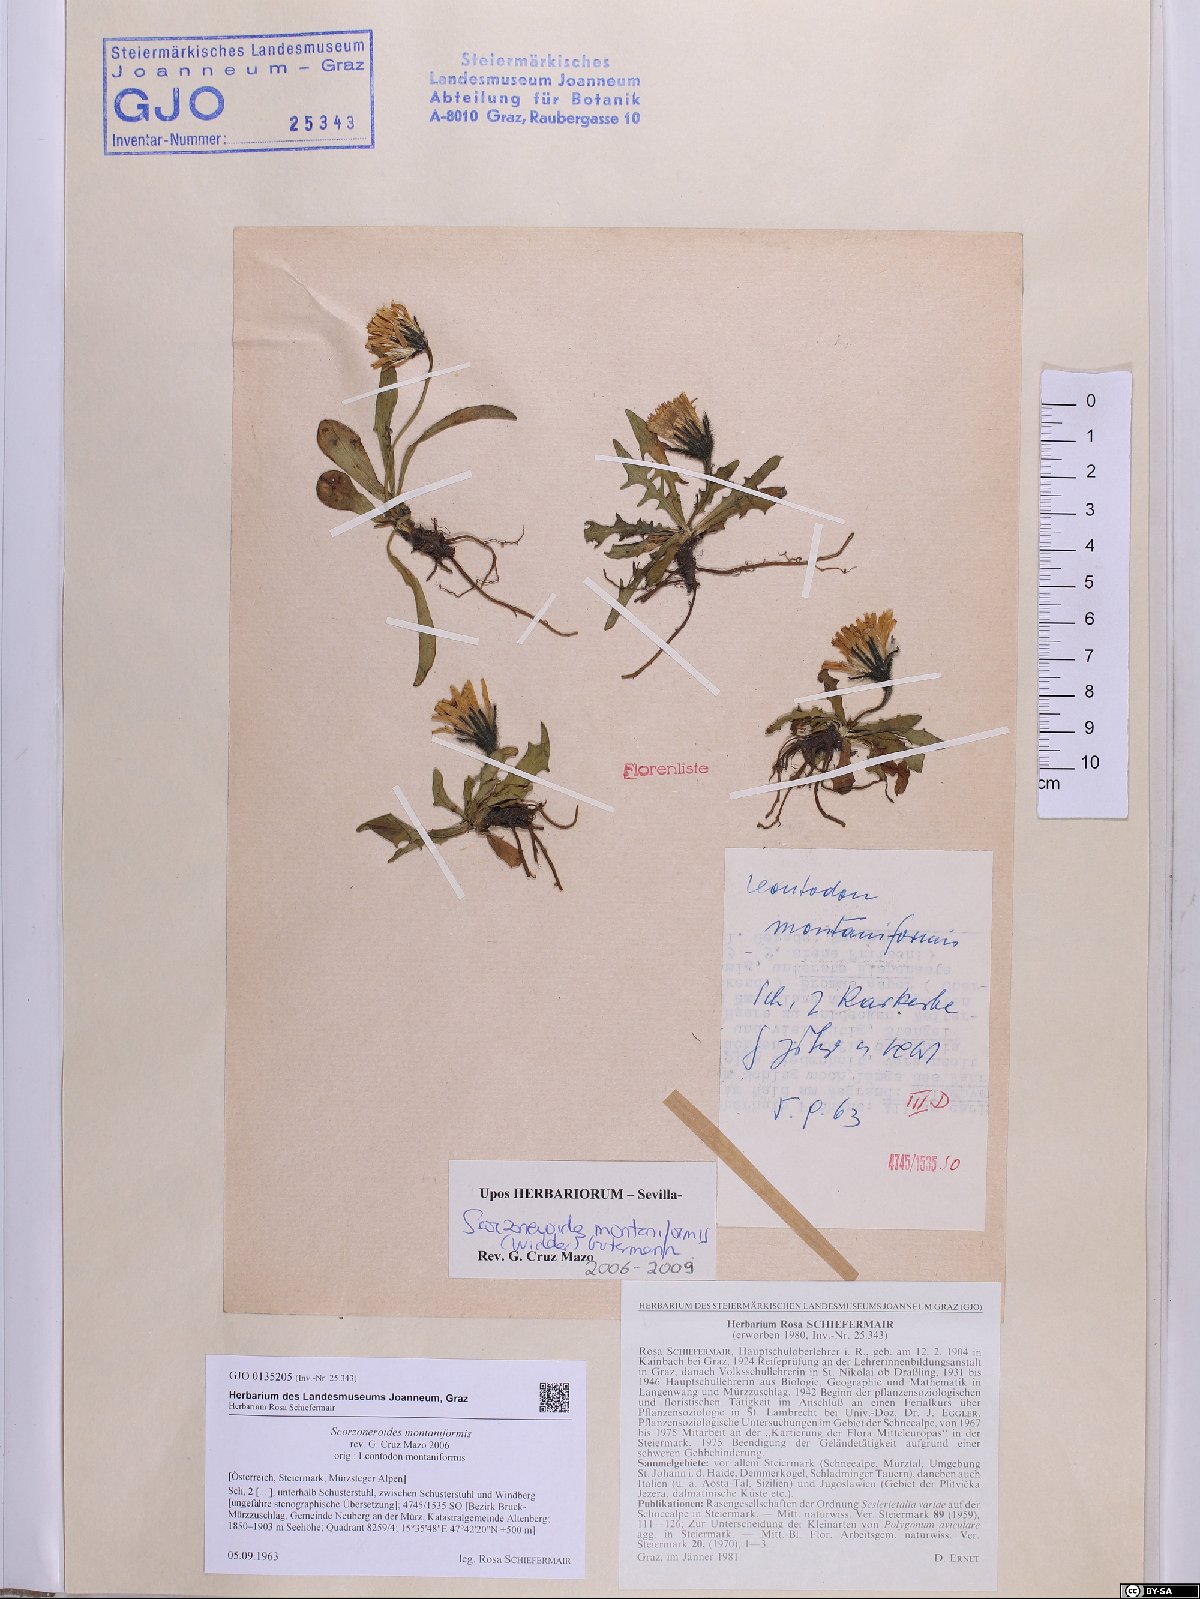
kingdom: Plantae
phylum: Tracheophyta
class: Magnoliopsida
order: Asterales
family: Asteraceae
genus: Scorzoneroides
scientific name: Scorzoneroides montana
